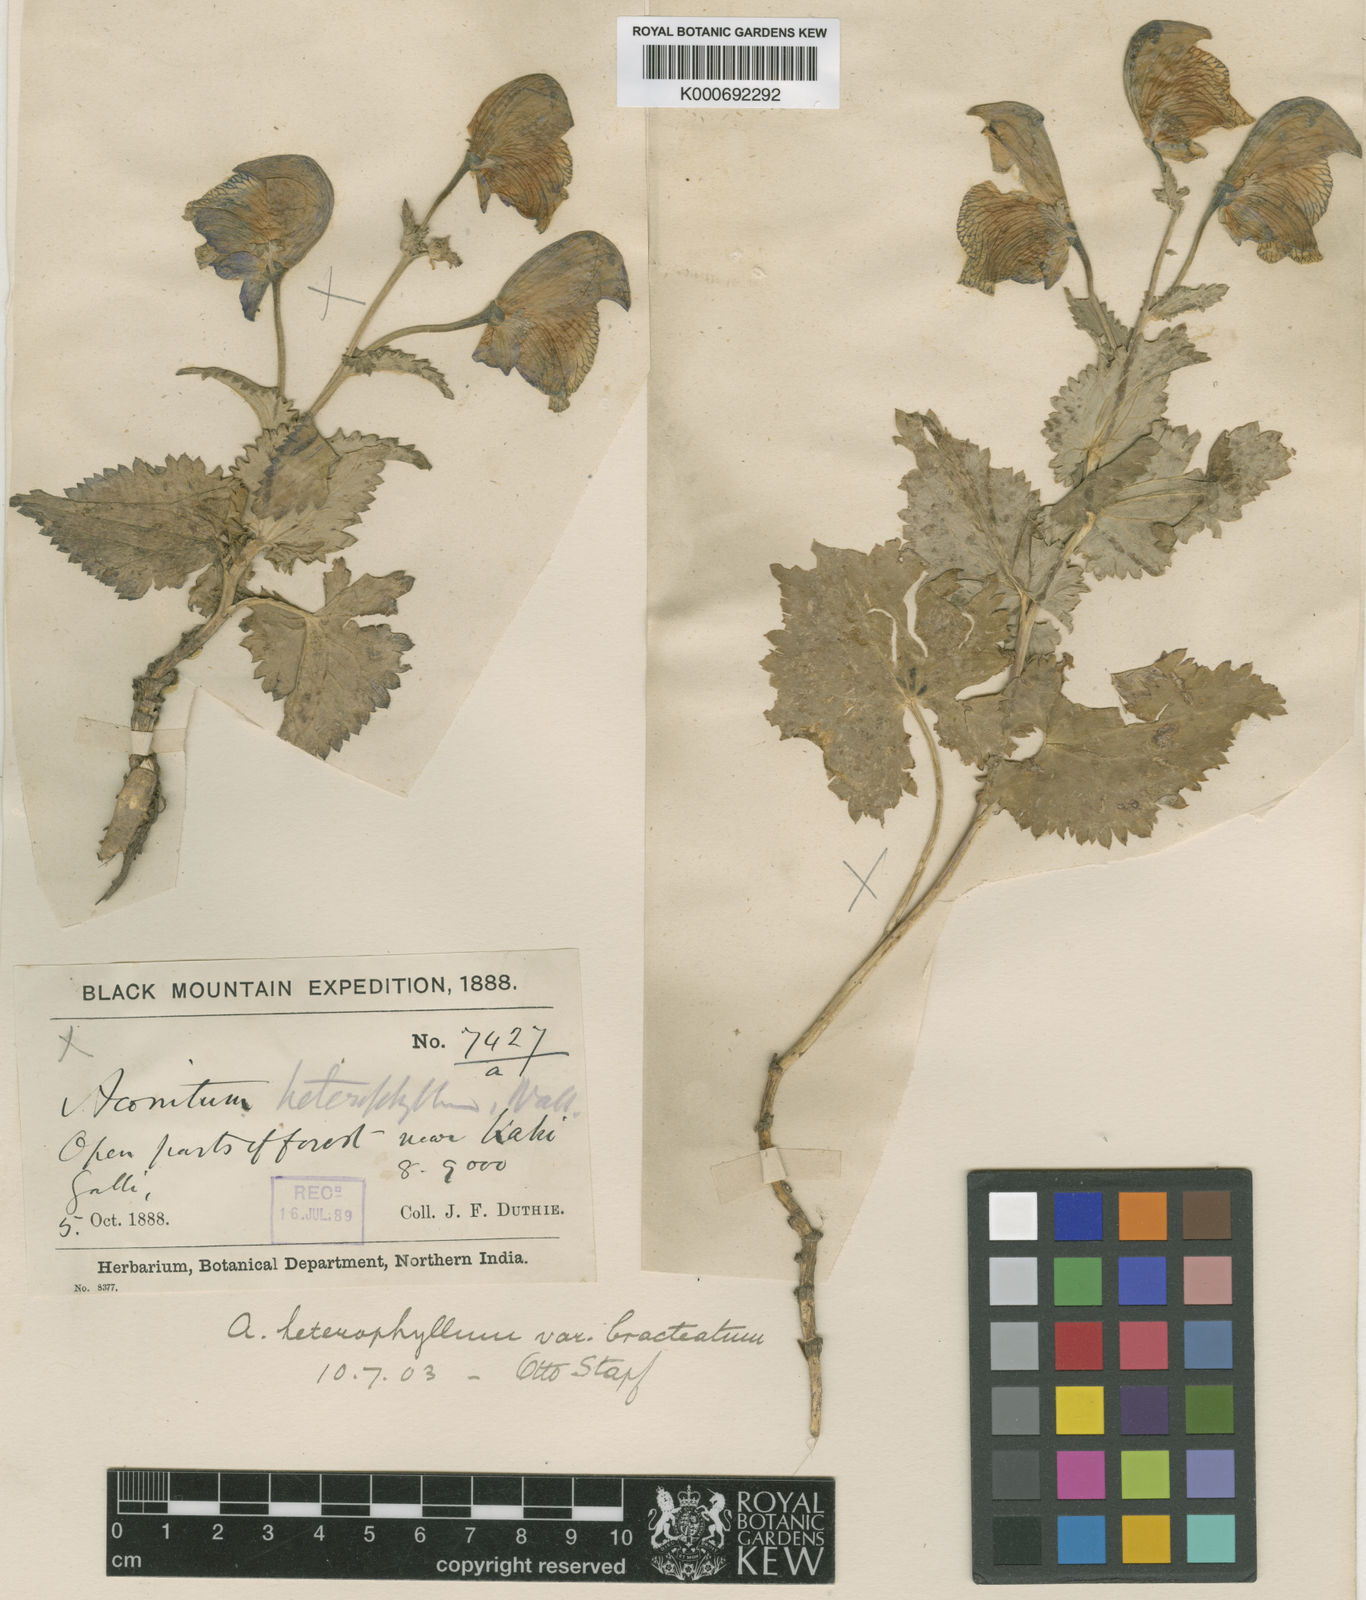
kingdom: Plantae
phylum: Tracheophyta
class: Magnoliopsida
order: Ranunculales
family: Ranunculaceae
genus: Aconitum
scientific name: Aconitum
